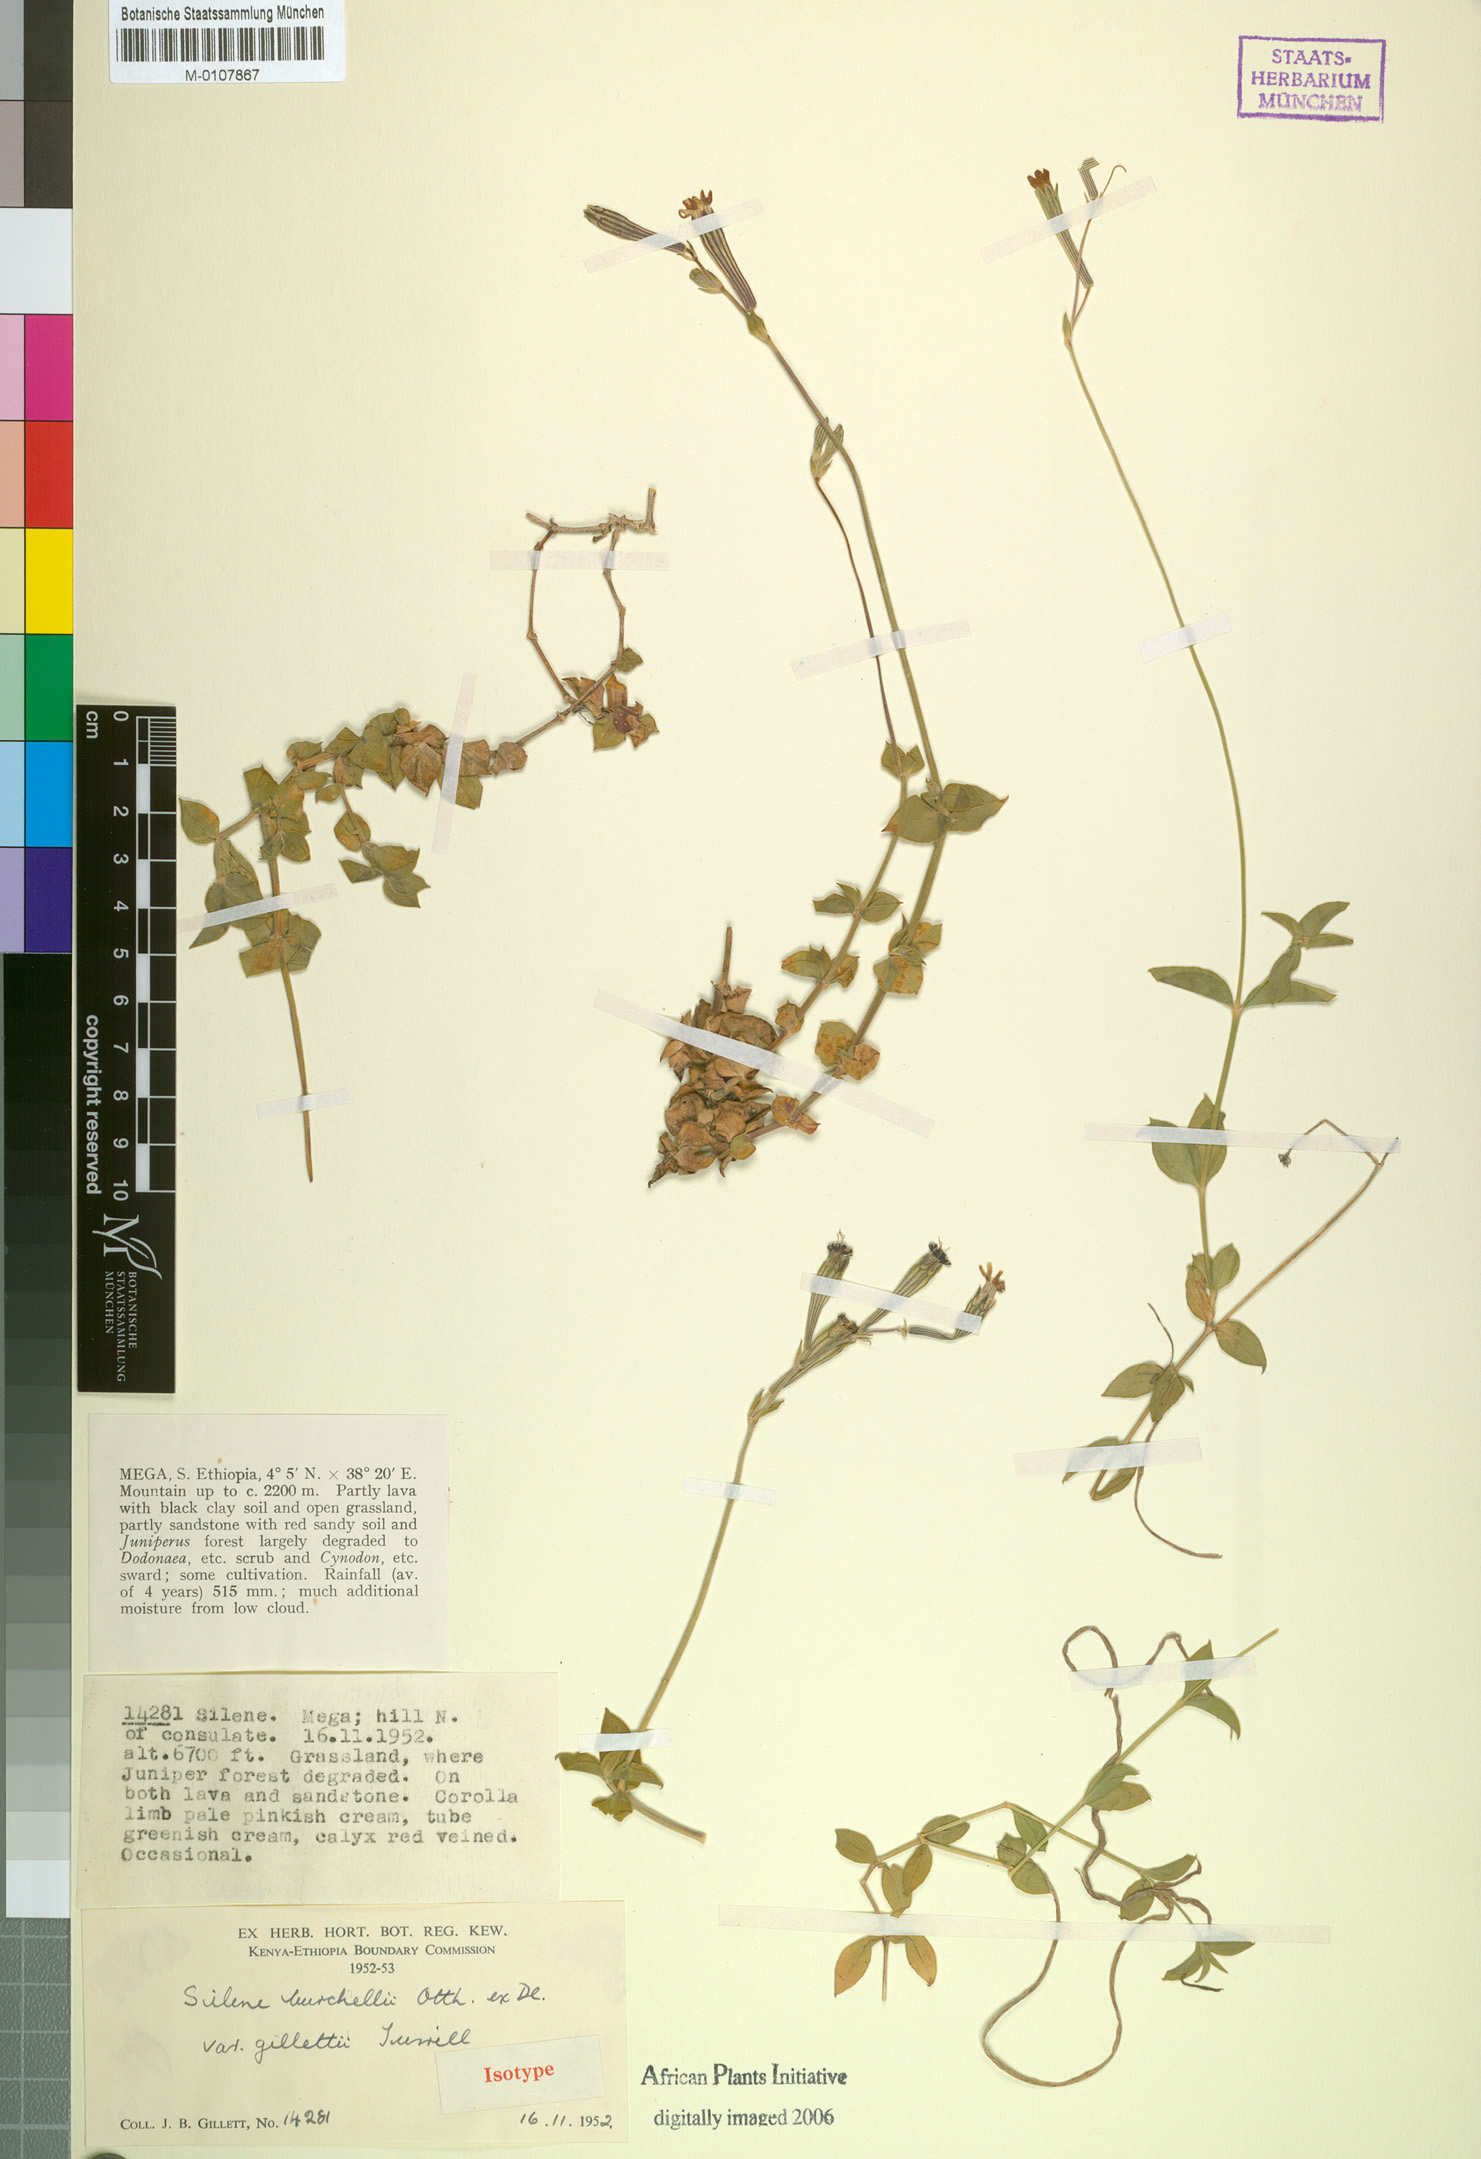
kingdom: Plantae
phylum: Tracheophyta
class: Magnoliopsida
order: Caryophyllales
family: Caryophyllaceae
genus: Silene
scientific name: Silene gillettii
